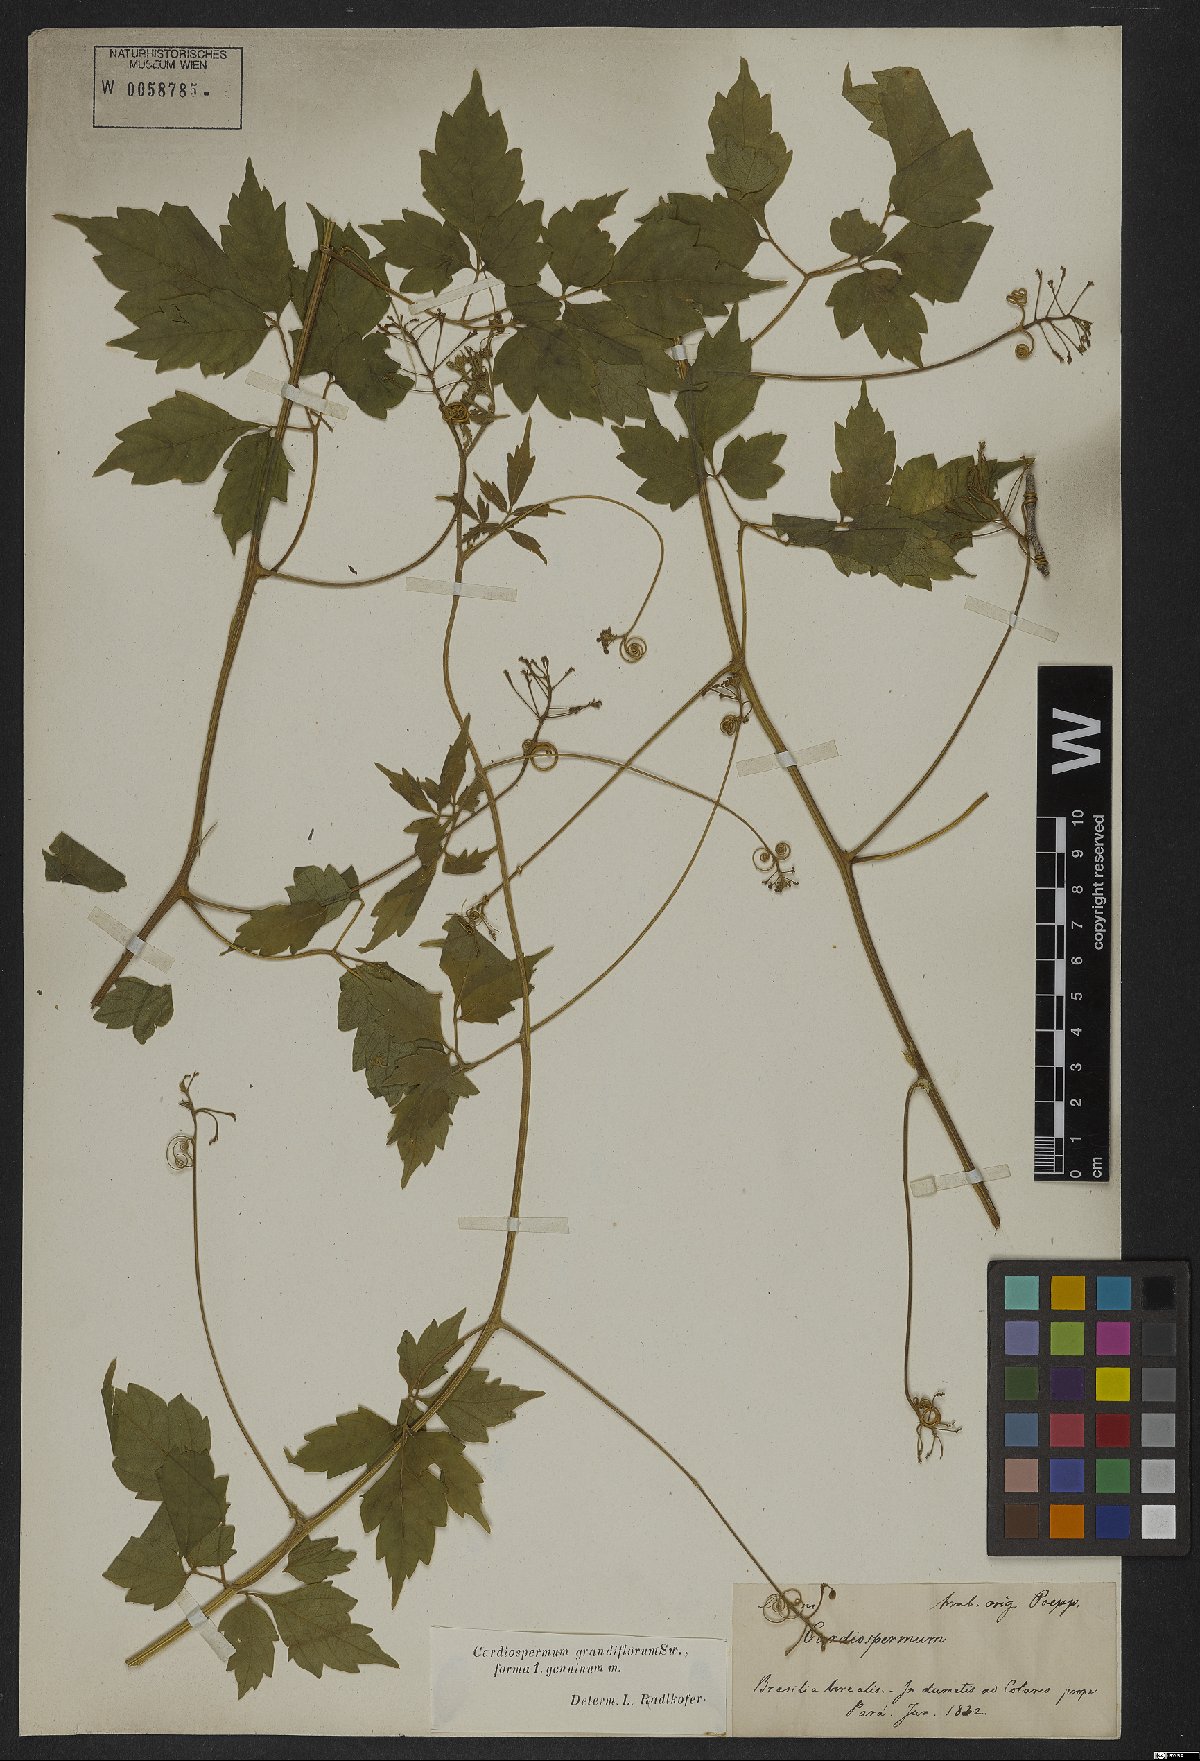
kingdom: Plantae
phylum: Tracheophyta
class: Magnoliopsida
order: Sapindales
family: Sapindaceae
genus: Cardiospermum
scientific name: Cardiospermum grandiflorum
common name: Balloon vine
